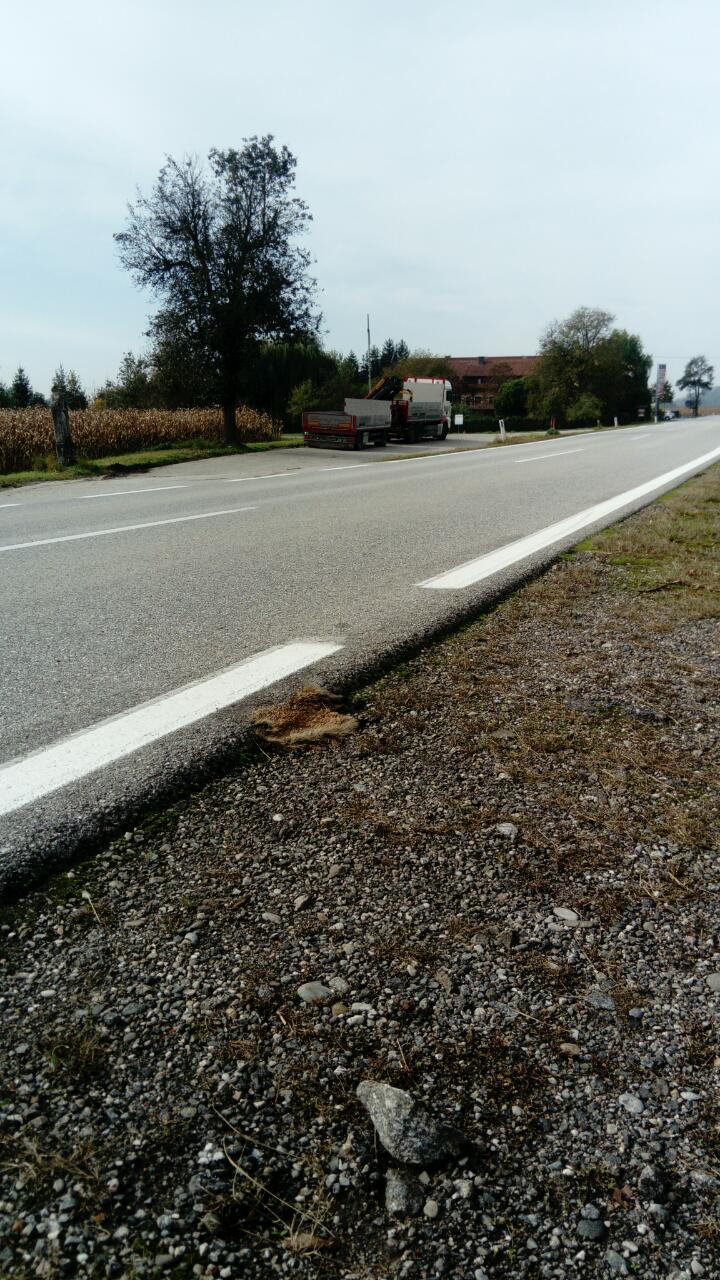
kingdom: Animalia
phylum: Chordata
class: Mammalia
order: Erinaceomorpha
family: Erinaceidae
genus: Erinaceus
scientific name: Erinaceus
